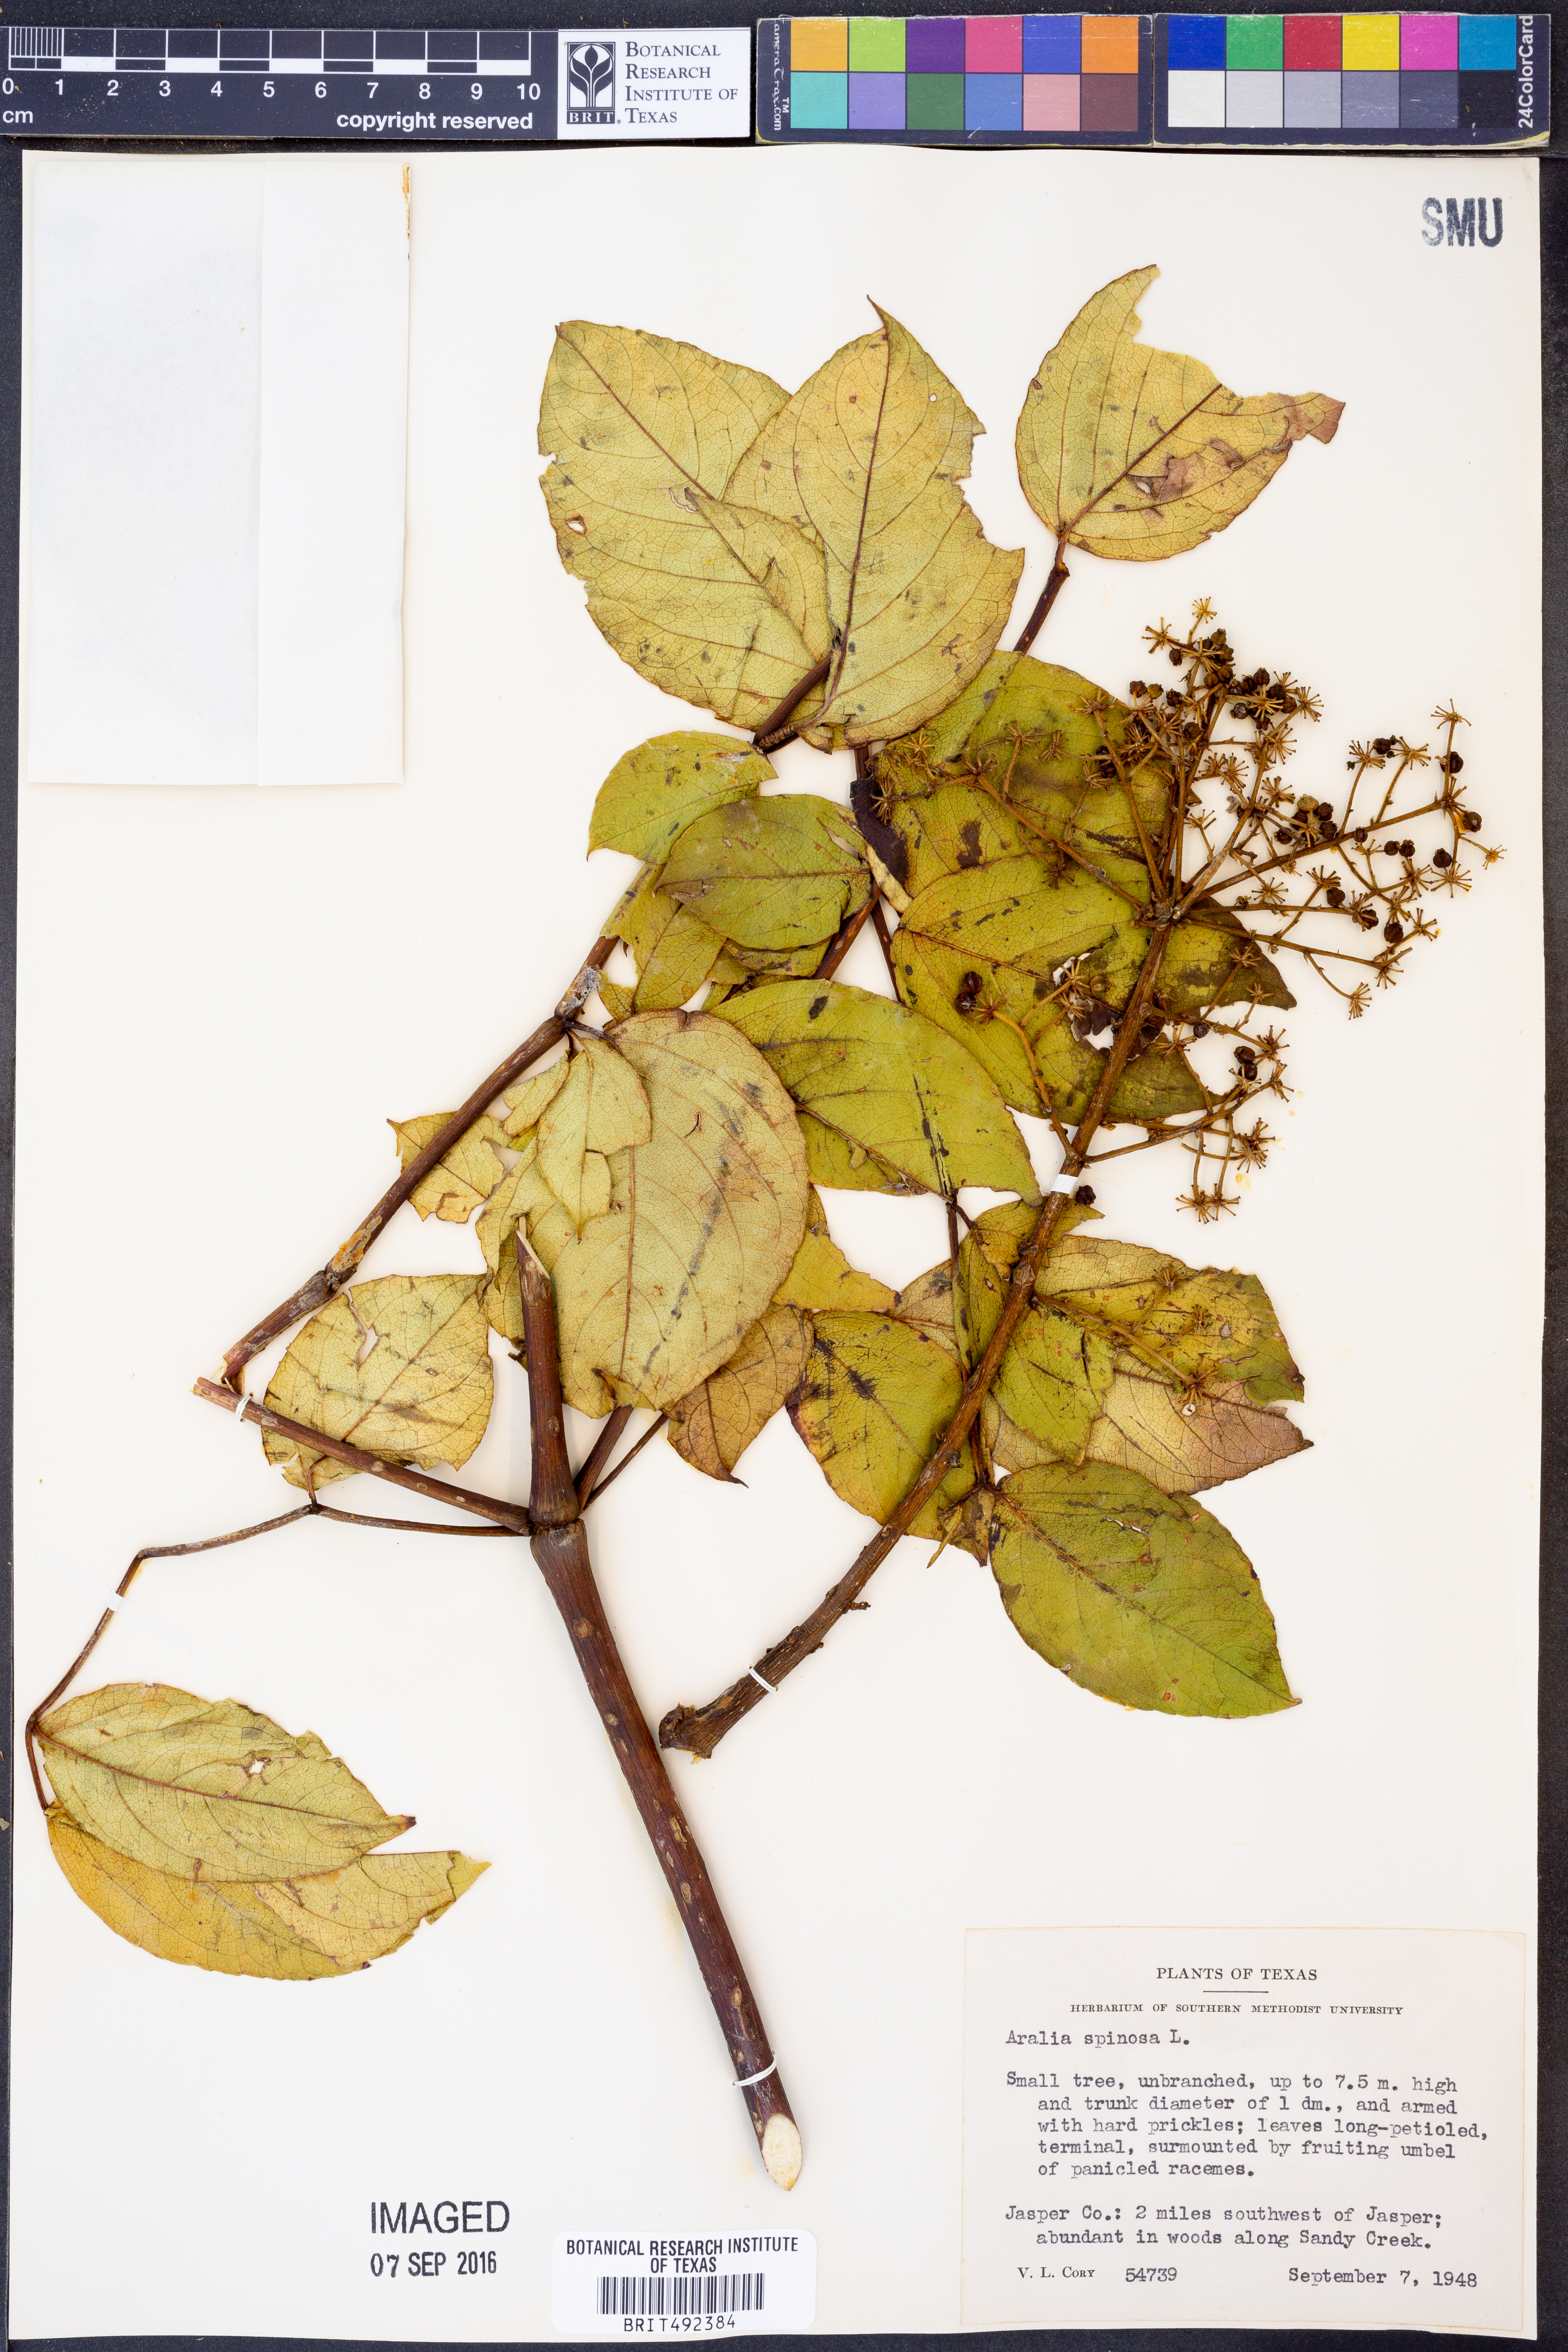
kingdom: Plantae
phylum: Tracheophyta
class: Magnoliopsida
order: Apiales
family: Araliaceae
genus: Aralia
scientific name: Aralia spinosa
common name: Hercules'-club
